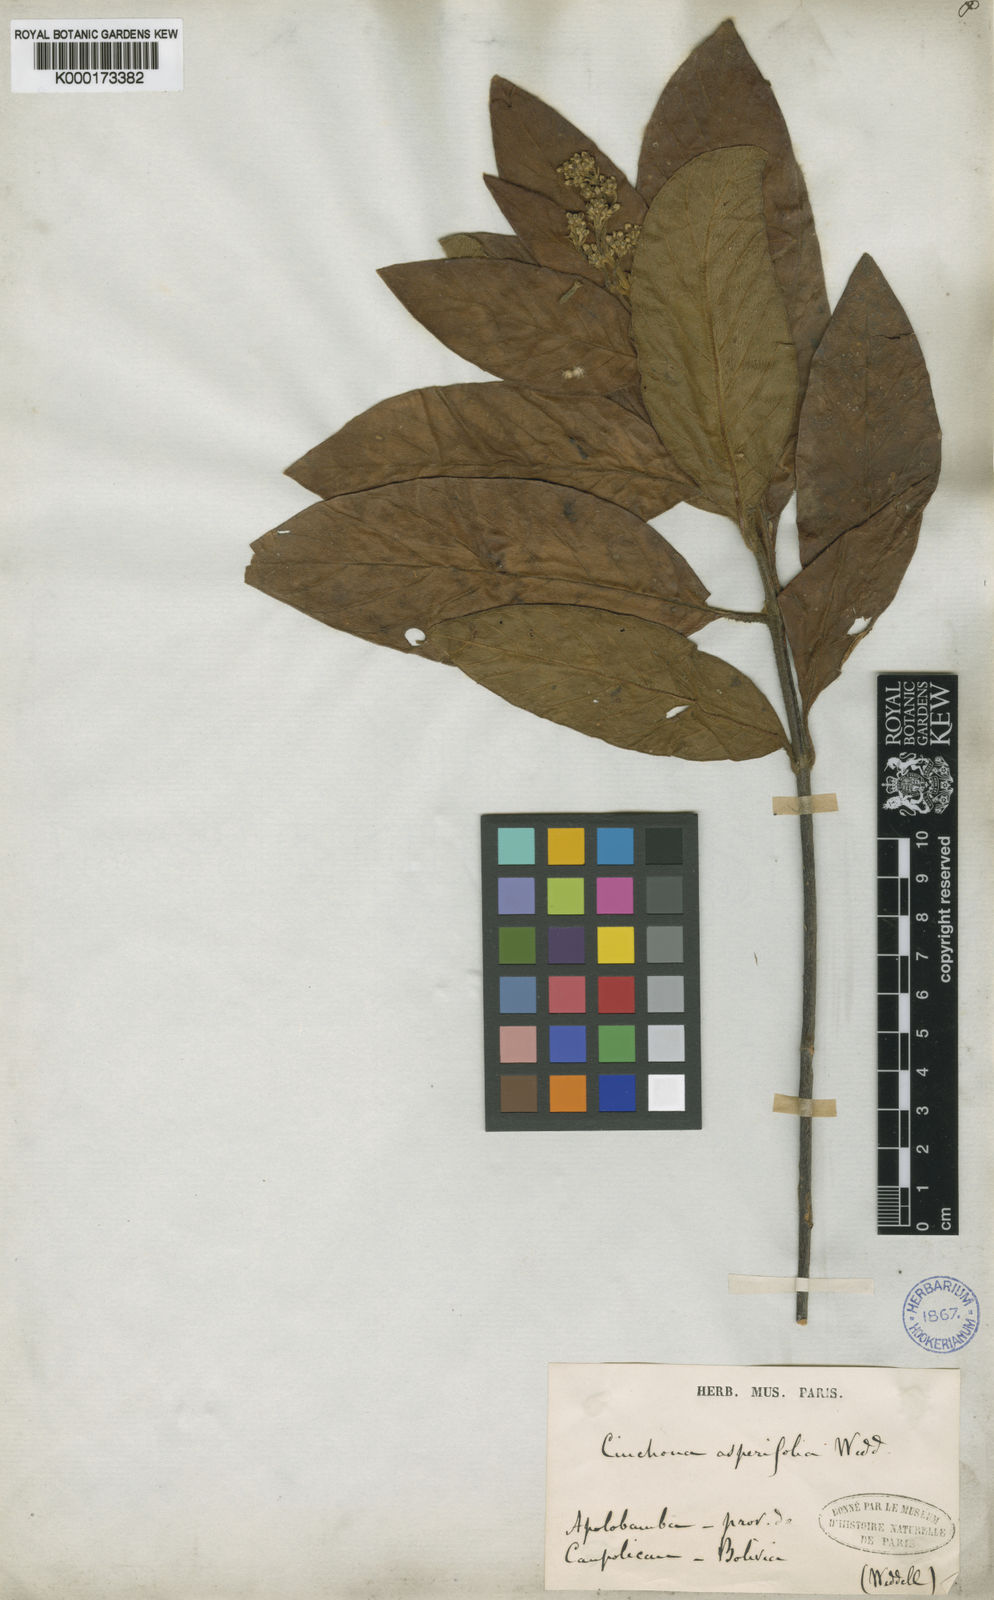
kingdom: Plantae
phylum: Tracheophyta
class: Magnoliopsida
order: Gentianales
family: Rubiaceae
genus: Cinchona
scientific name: Cinchona asperifolia
